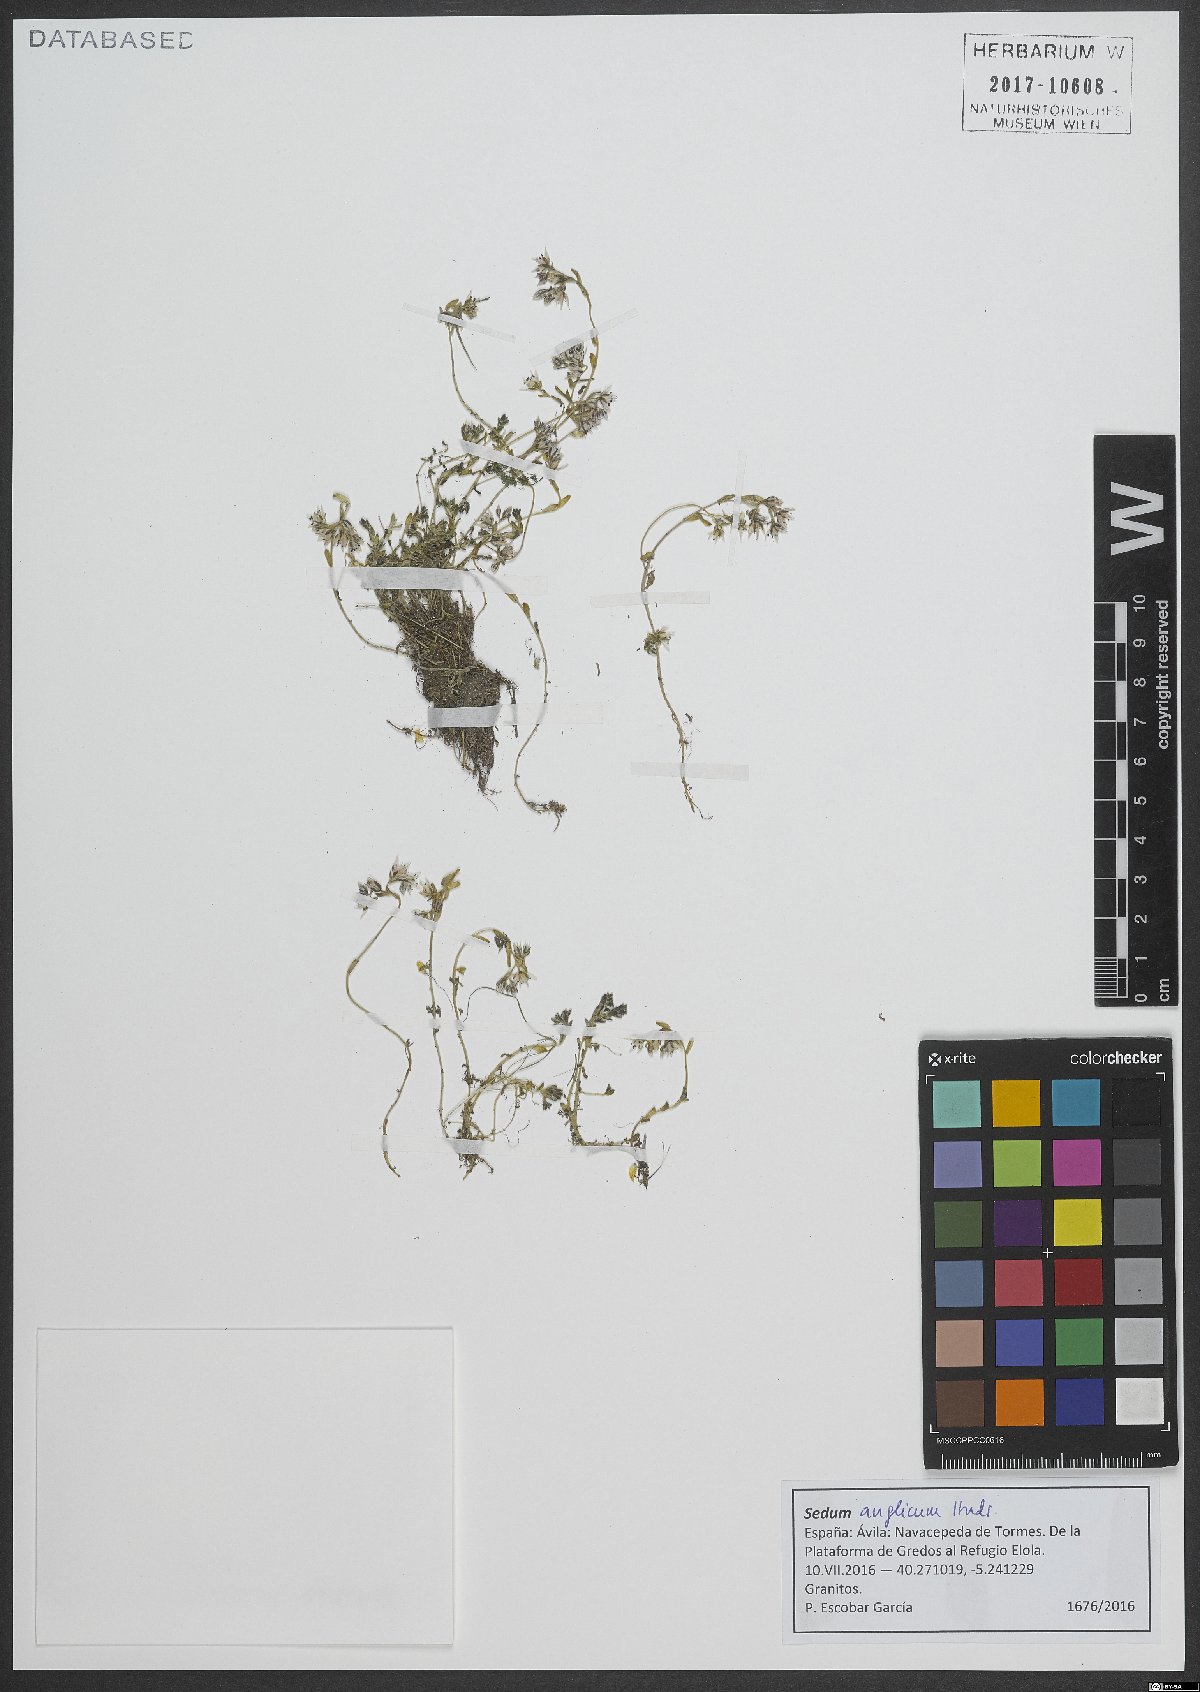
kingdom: Plantae
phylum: Tracheophyta
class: Magnoliopsida
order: Saxifragales
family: Crassulaceae
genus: Sedum
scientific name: Sedum anglicum
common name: English stonecrop
